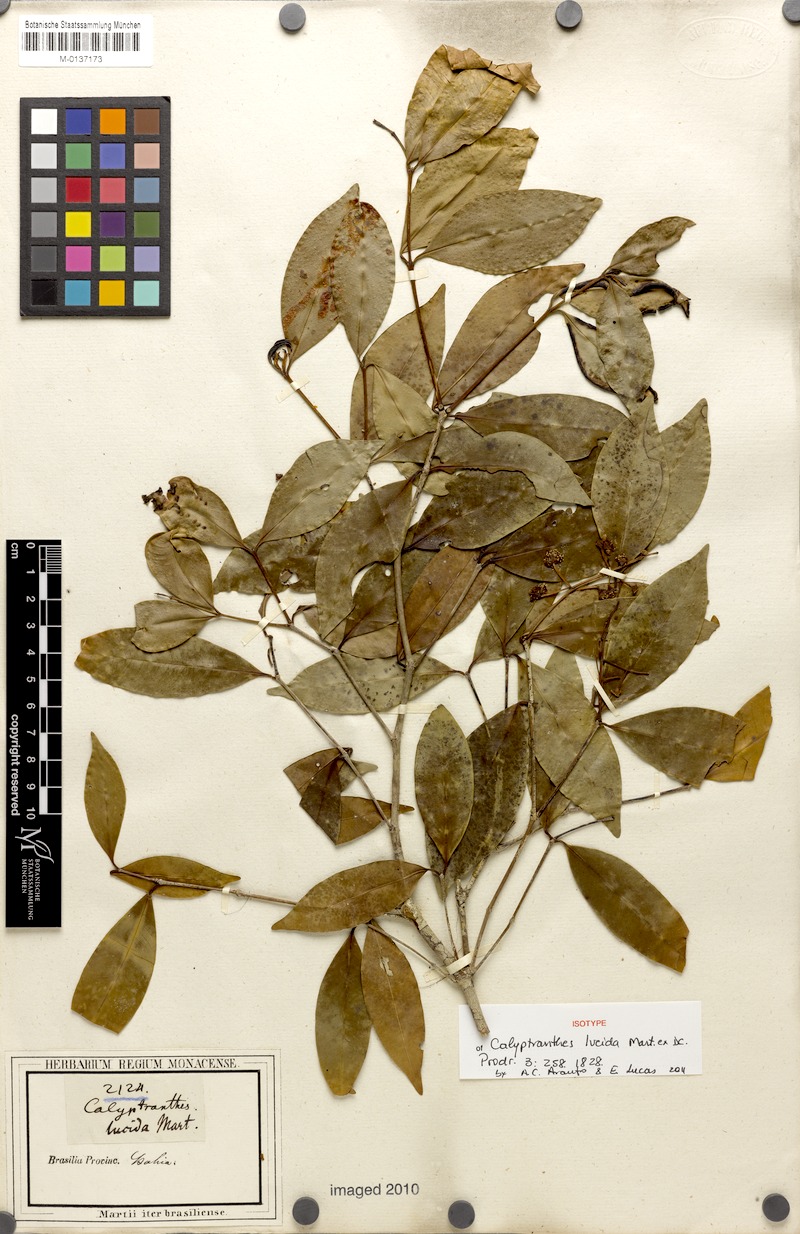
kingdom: Plantae
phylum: Tracheophyta
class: Magnoliopsida
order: Myrtales
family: Myrtaceae
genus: Myrcia
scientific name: Myrcia neolucida
